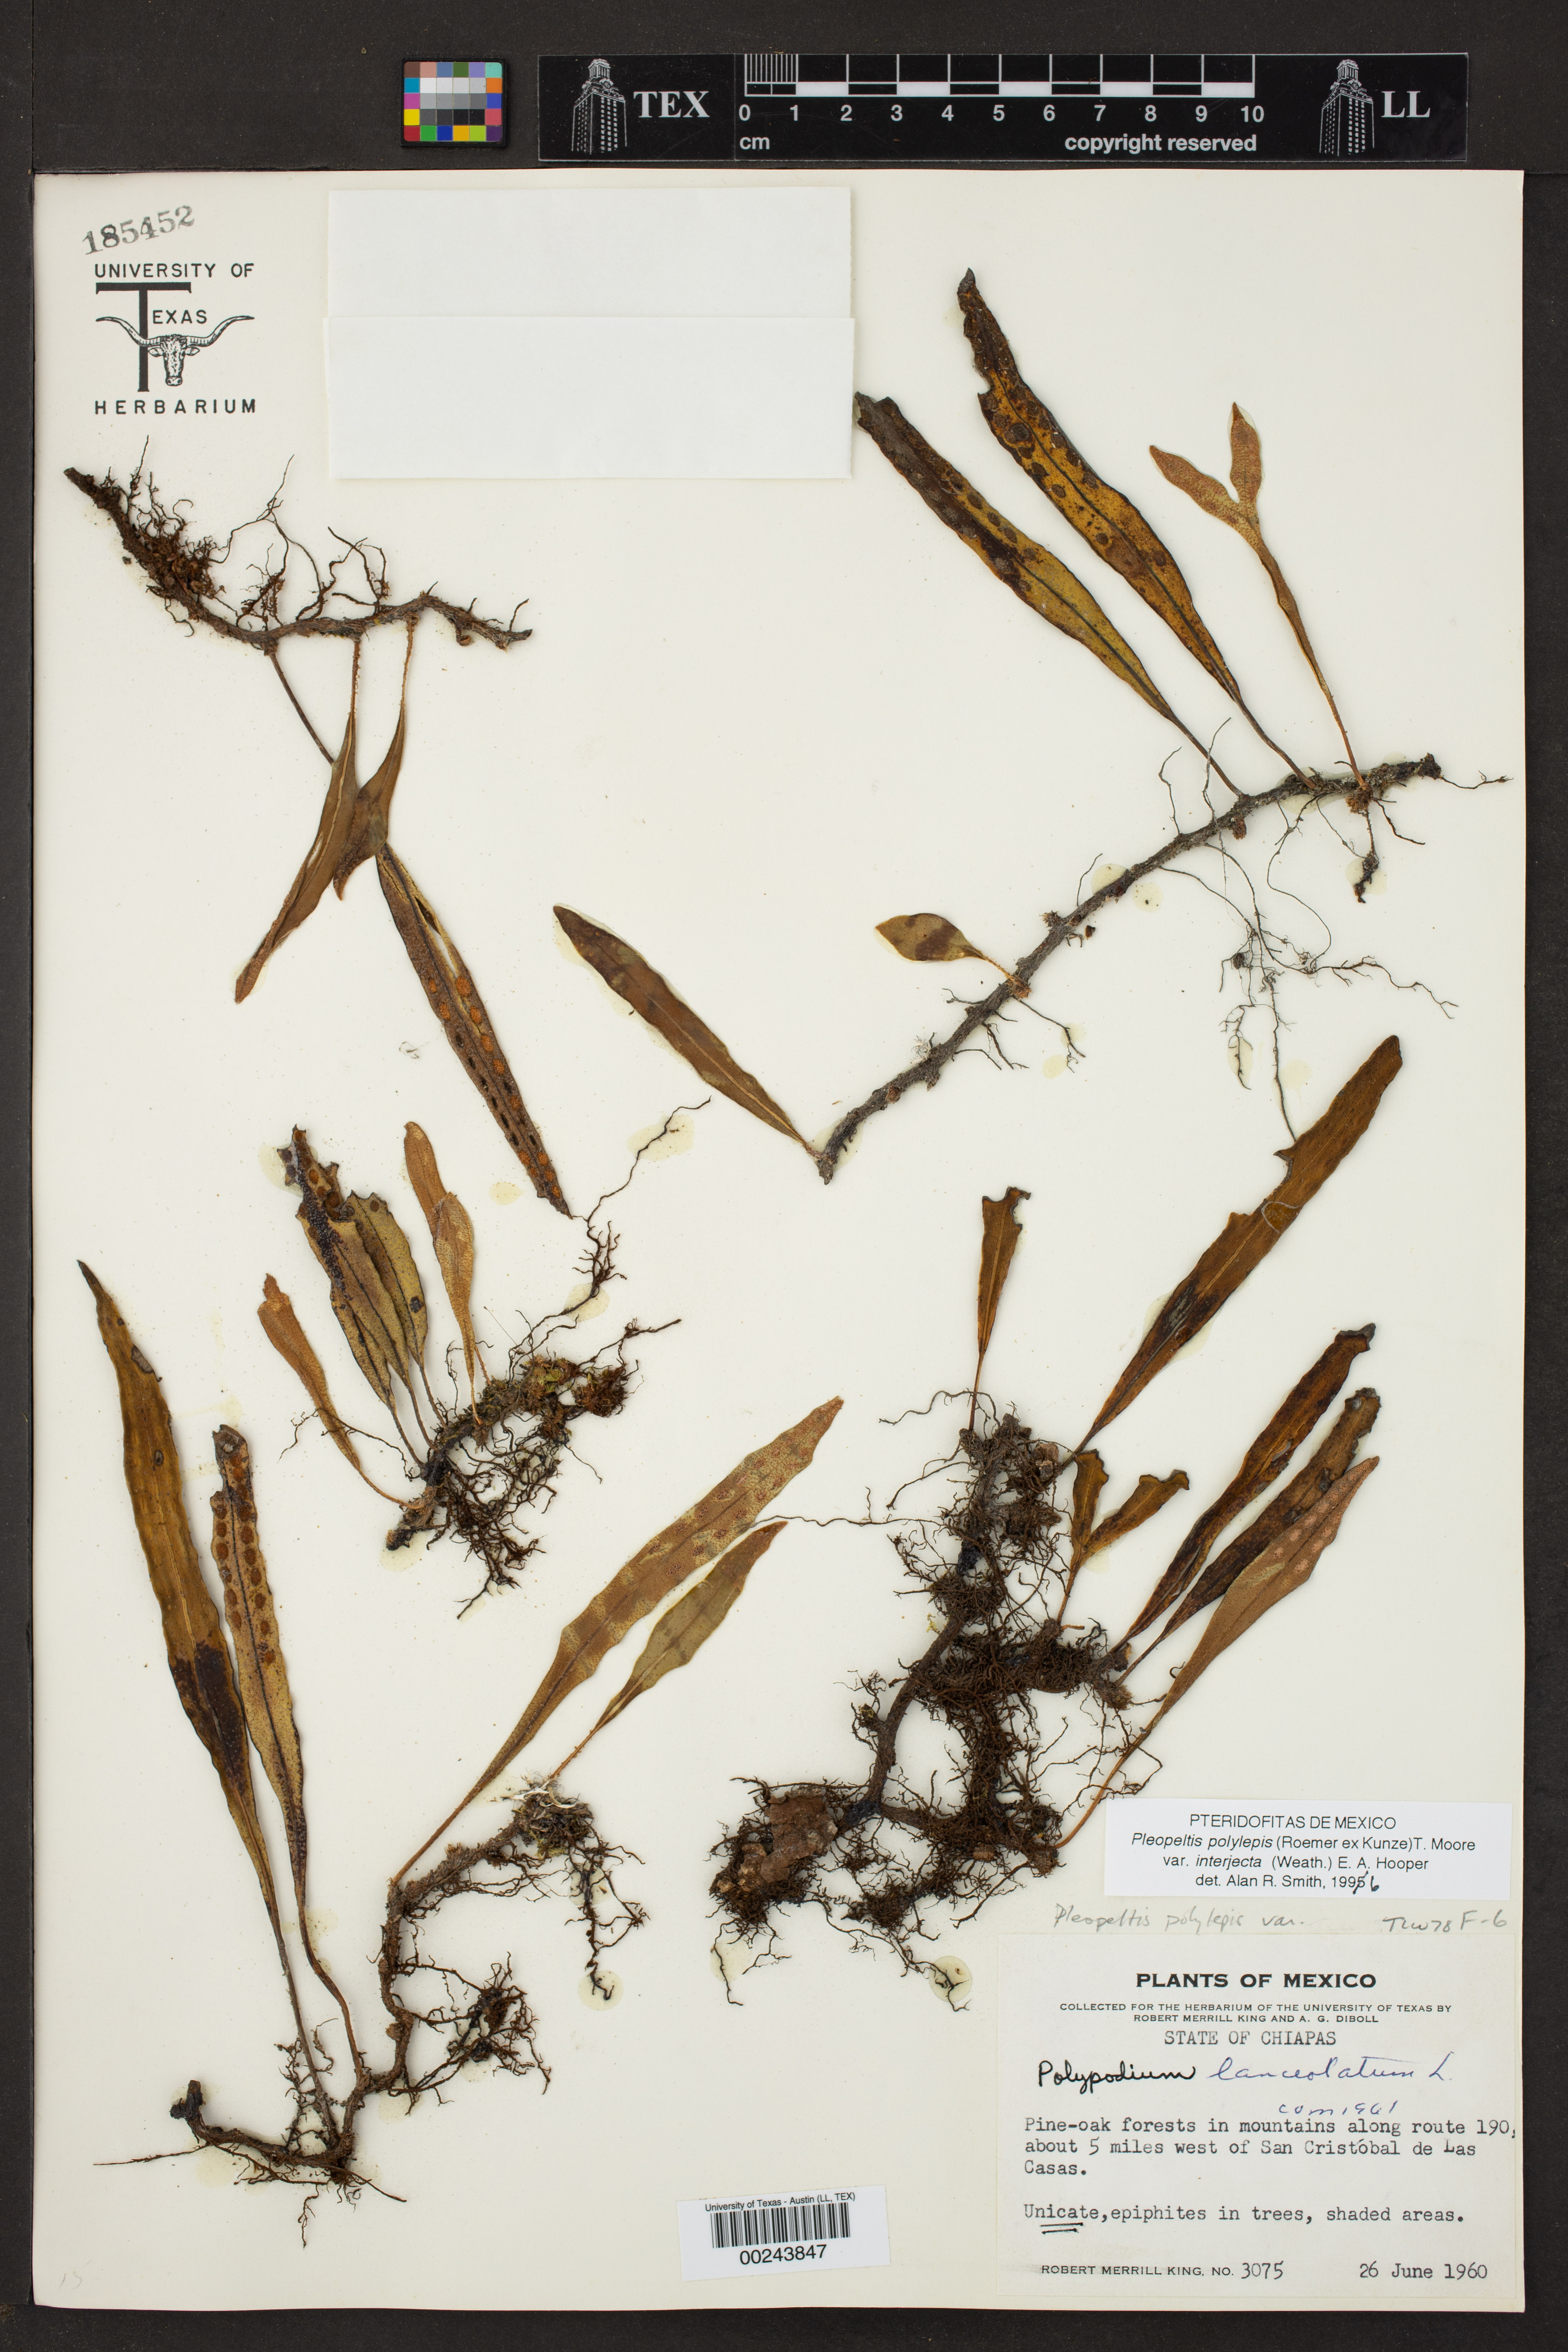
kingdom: Plantae
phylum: Tracheophyta
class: Polypodiopsida
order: Polypodiales
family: Polypodiaceae
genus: Pleopeltis
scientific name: Pleopeltis polylepis
